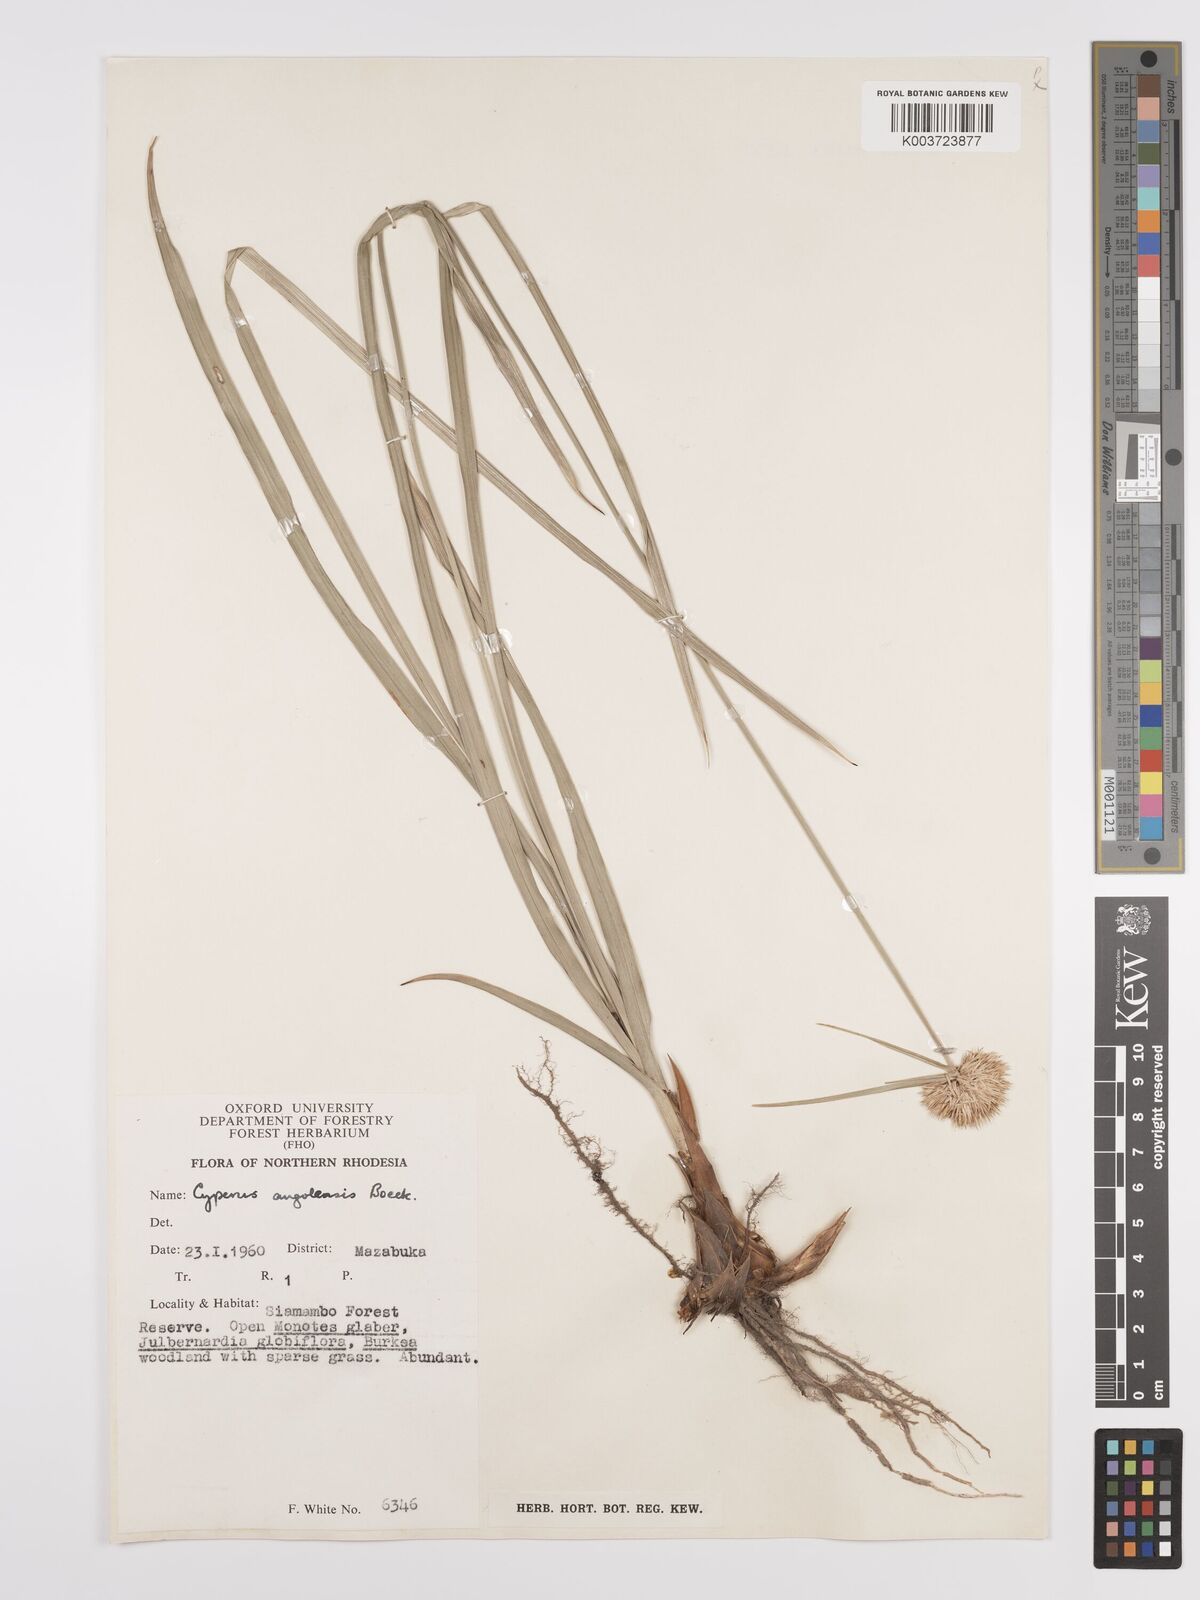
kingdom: Plantae
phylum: Tracheophyta
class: Liliopsida
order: Poales
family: Cyperaceae
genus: Cyperus
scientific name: Cyperus angolensis
